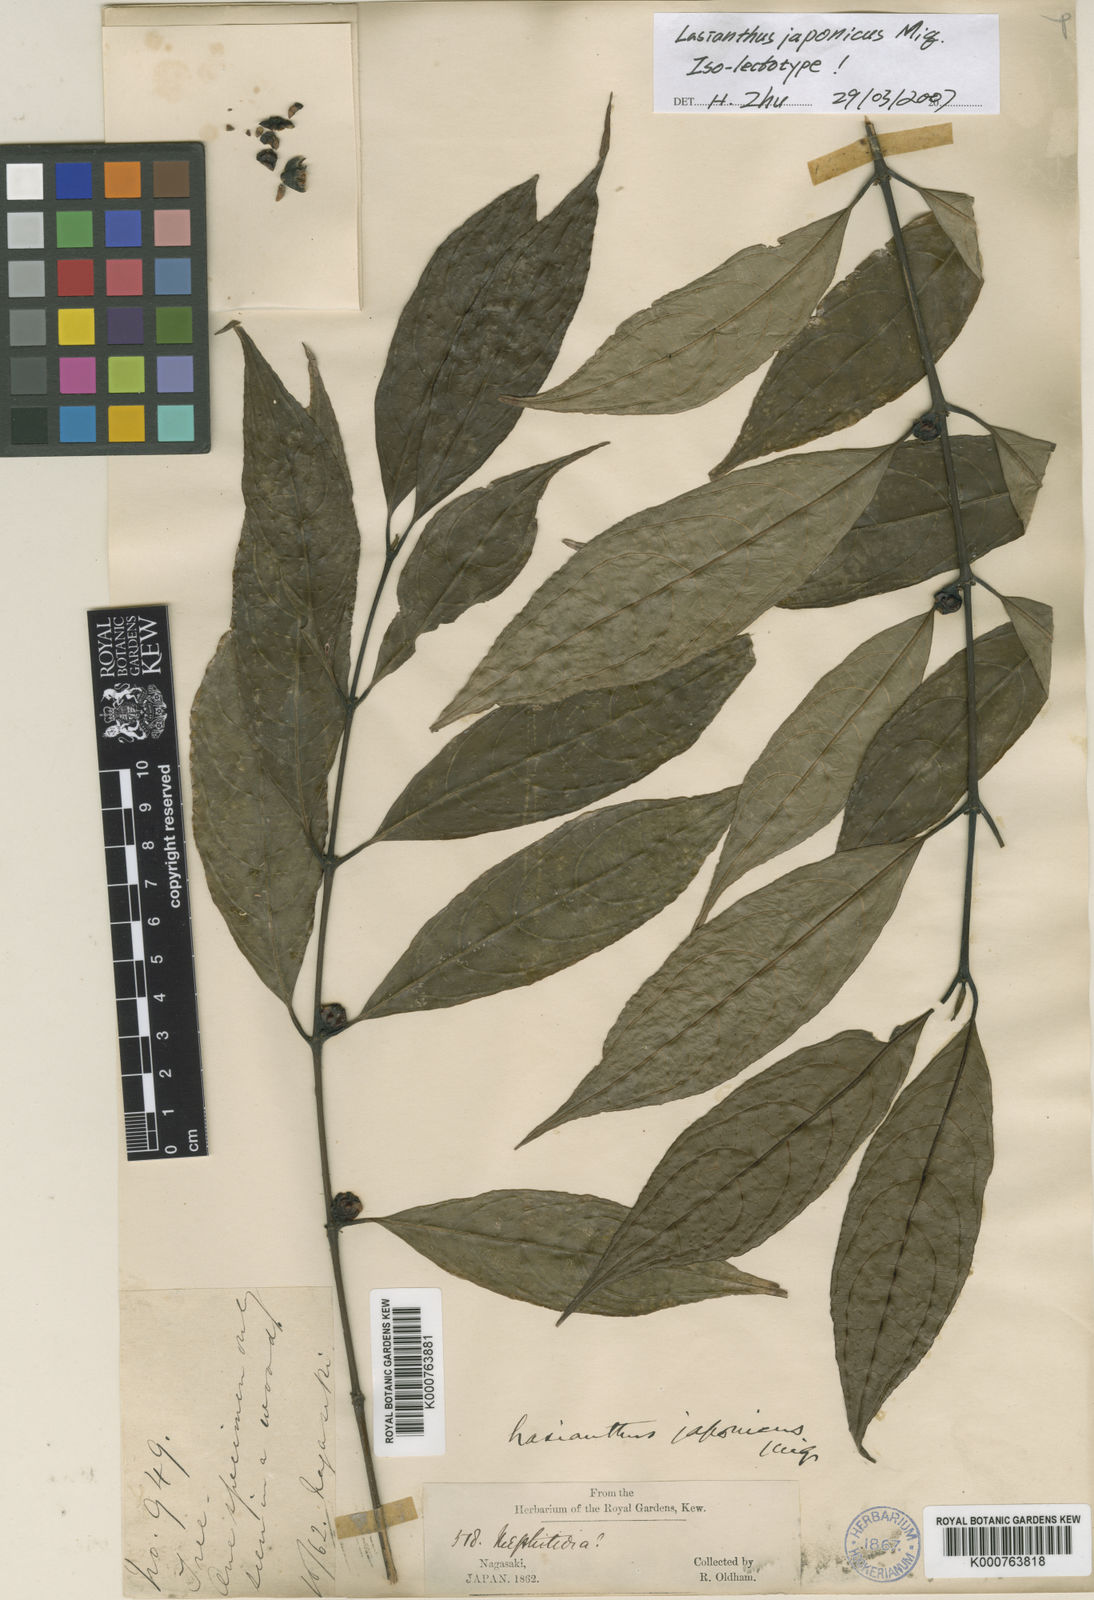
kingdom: Plantae
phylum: Tracheophyta
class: Magnoliopsida
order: Gentianales
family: Rubiaceae
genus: Lasianthus
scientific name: Lasianthus japonicus
